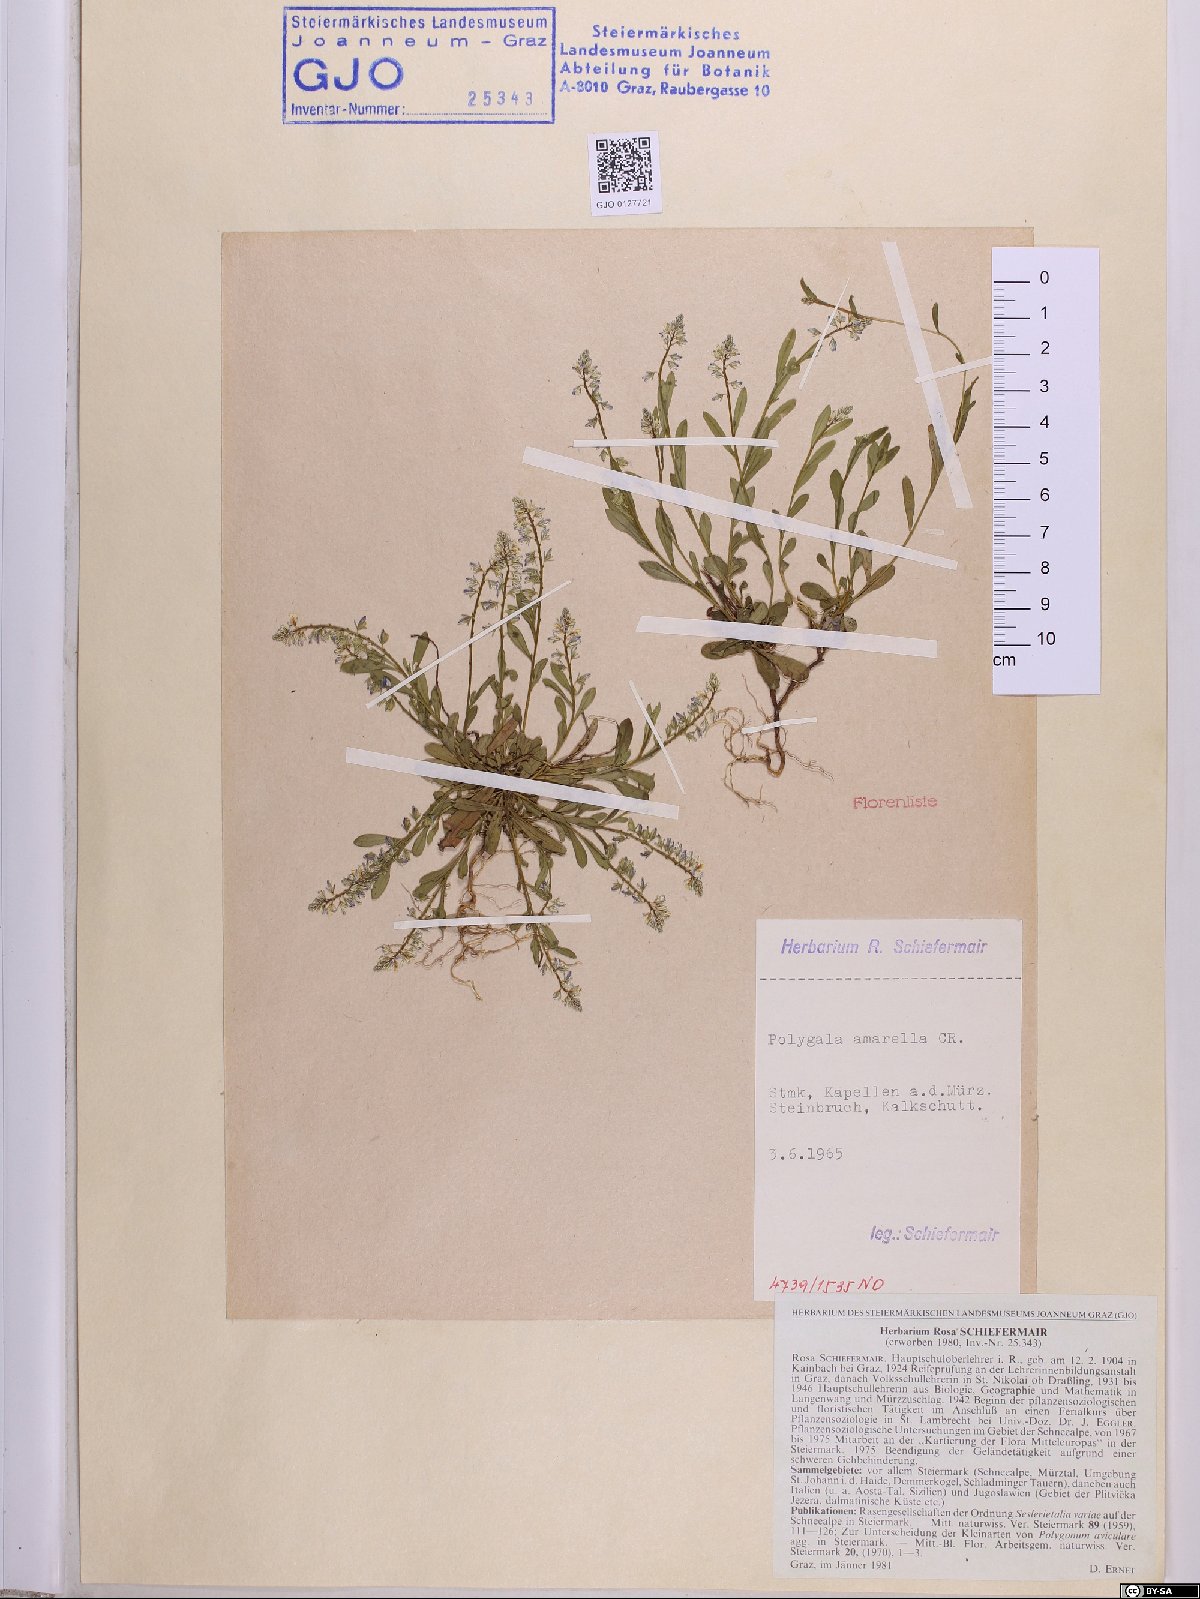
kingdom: Plantae
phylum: Tracheophyta
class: Magnoliopsida
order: Fabales
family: Polygalaceae
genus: Polygala
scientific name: Polygala amarella
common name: Dwarf milkwort
